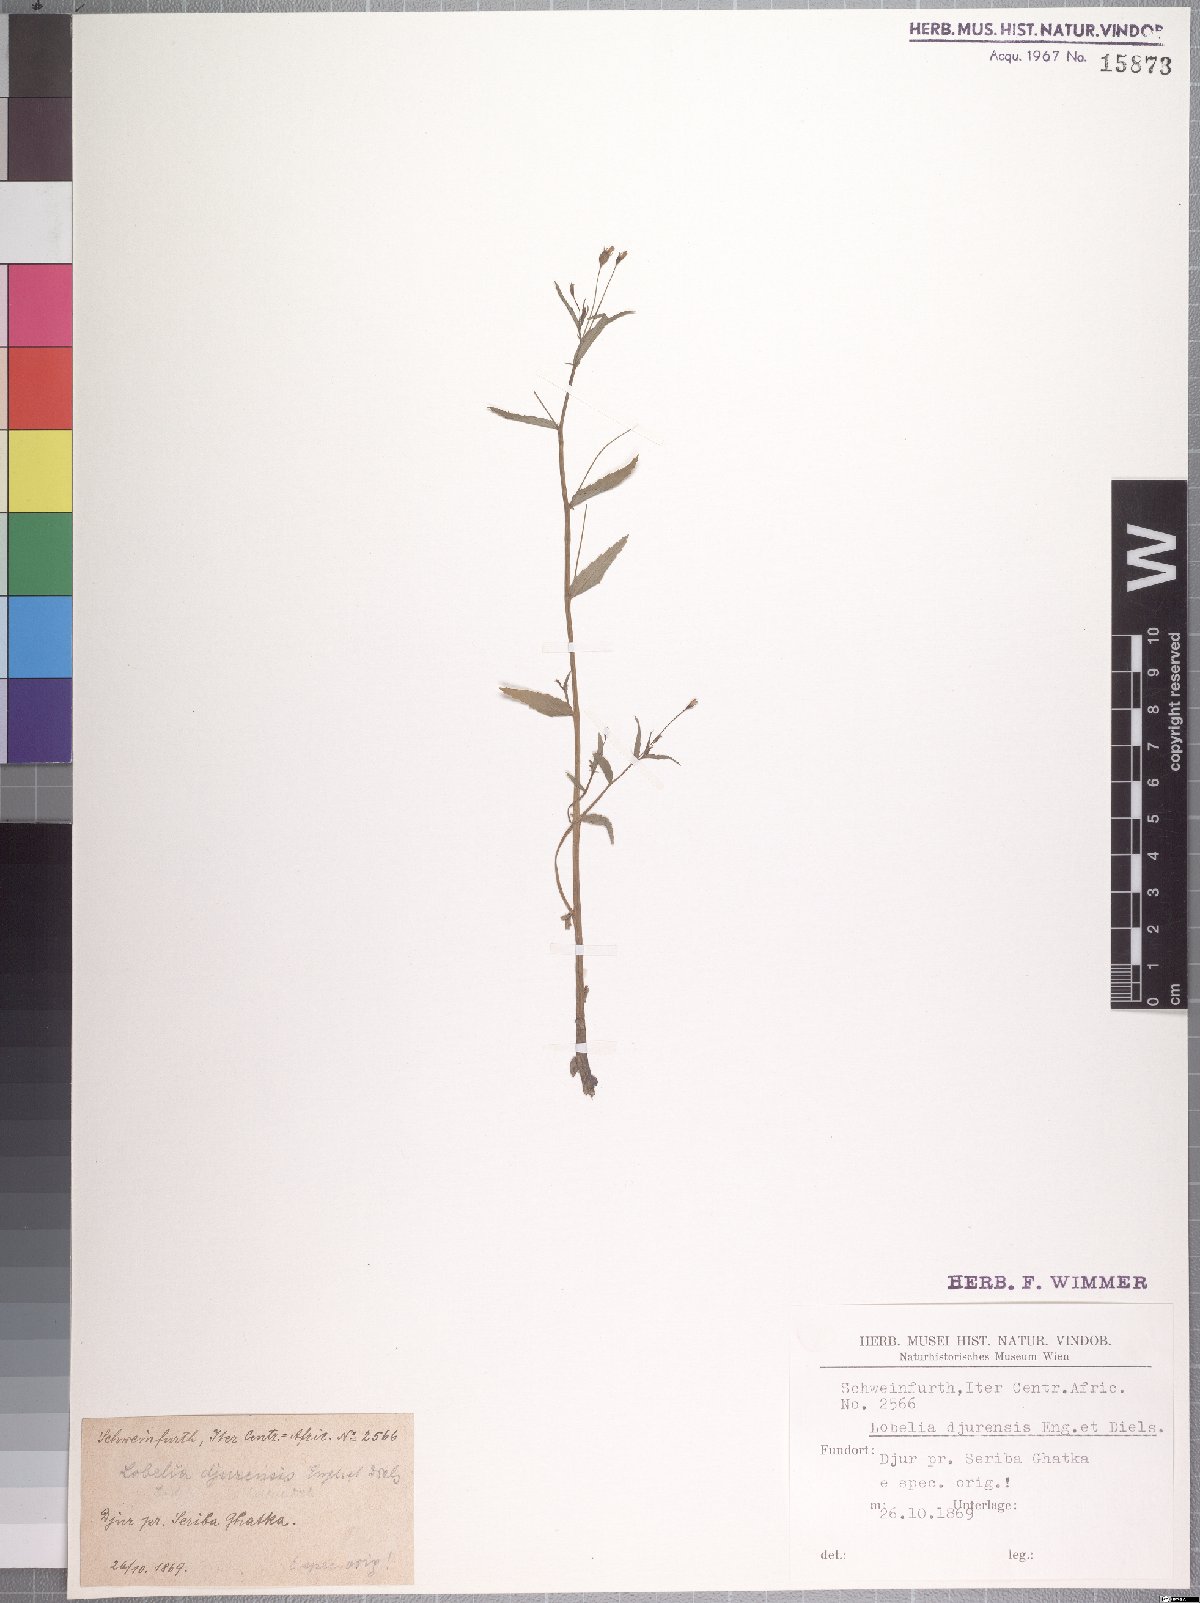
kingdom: Plantae
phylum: Tracheophyta
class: Magnoliopsida
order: Asterales
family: Campanulaceae
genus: Lobelia
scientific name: Lobelia djurensis
